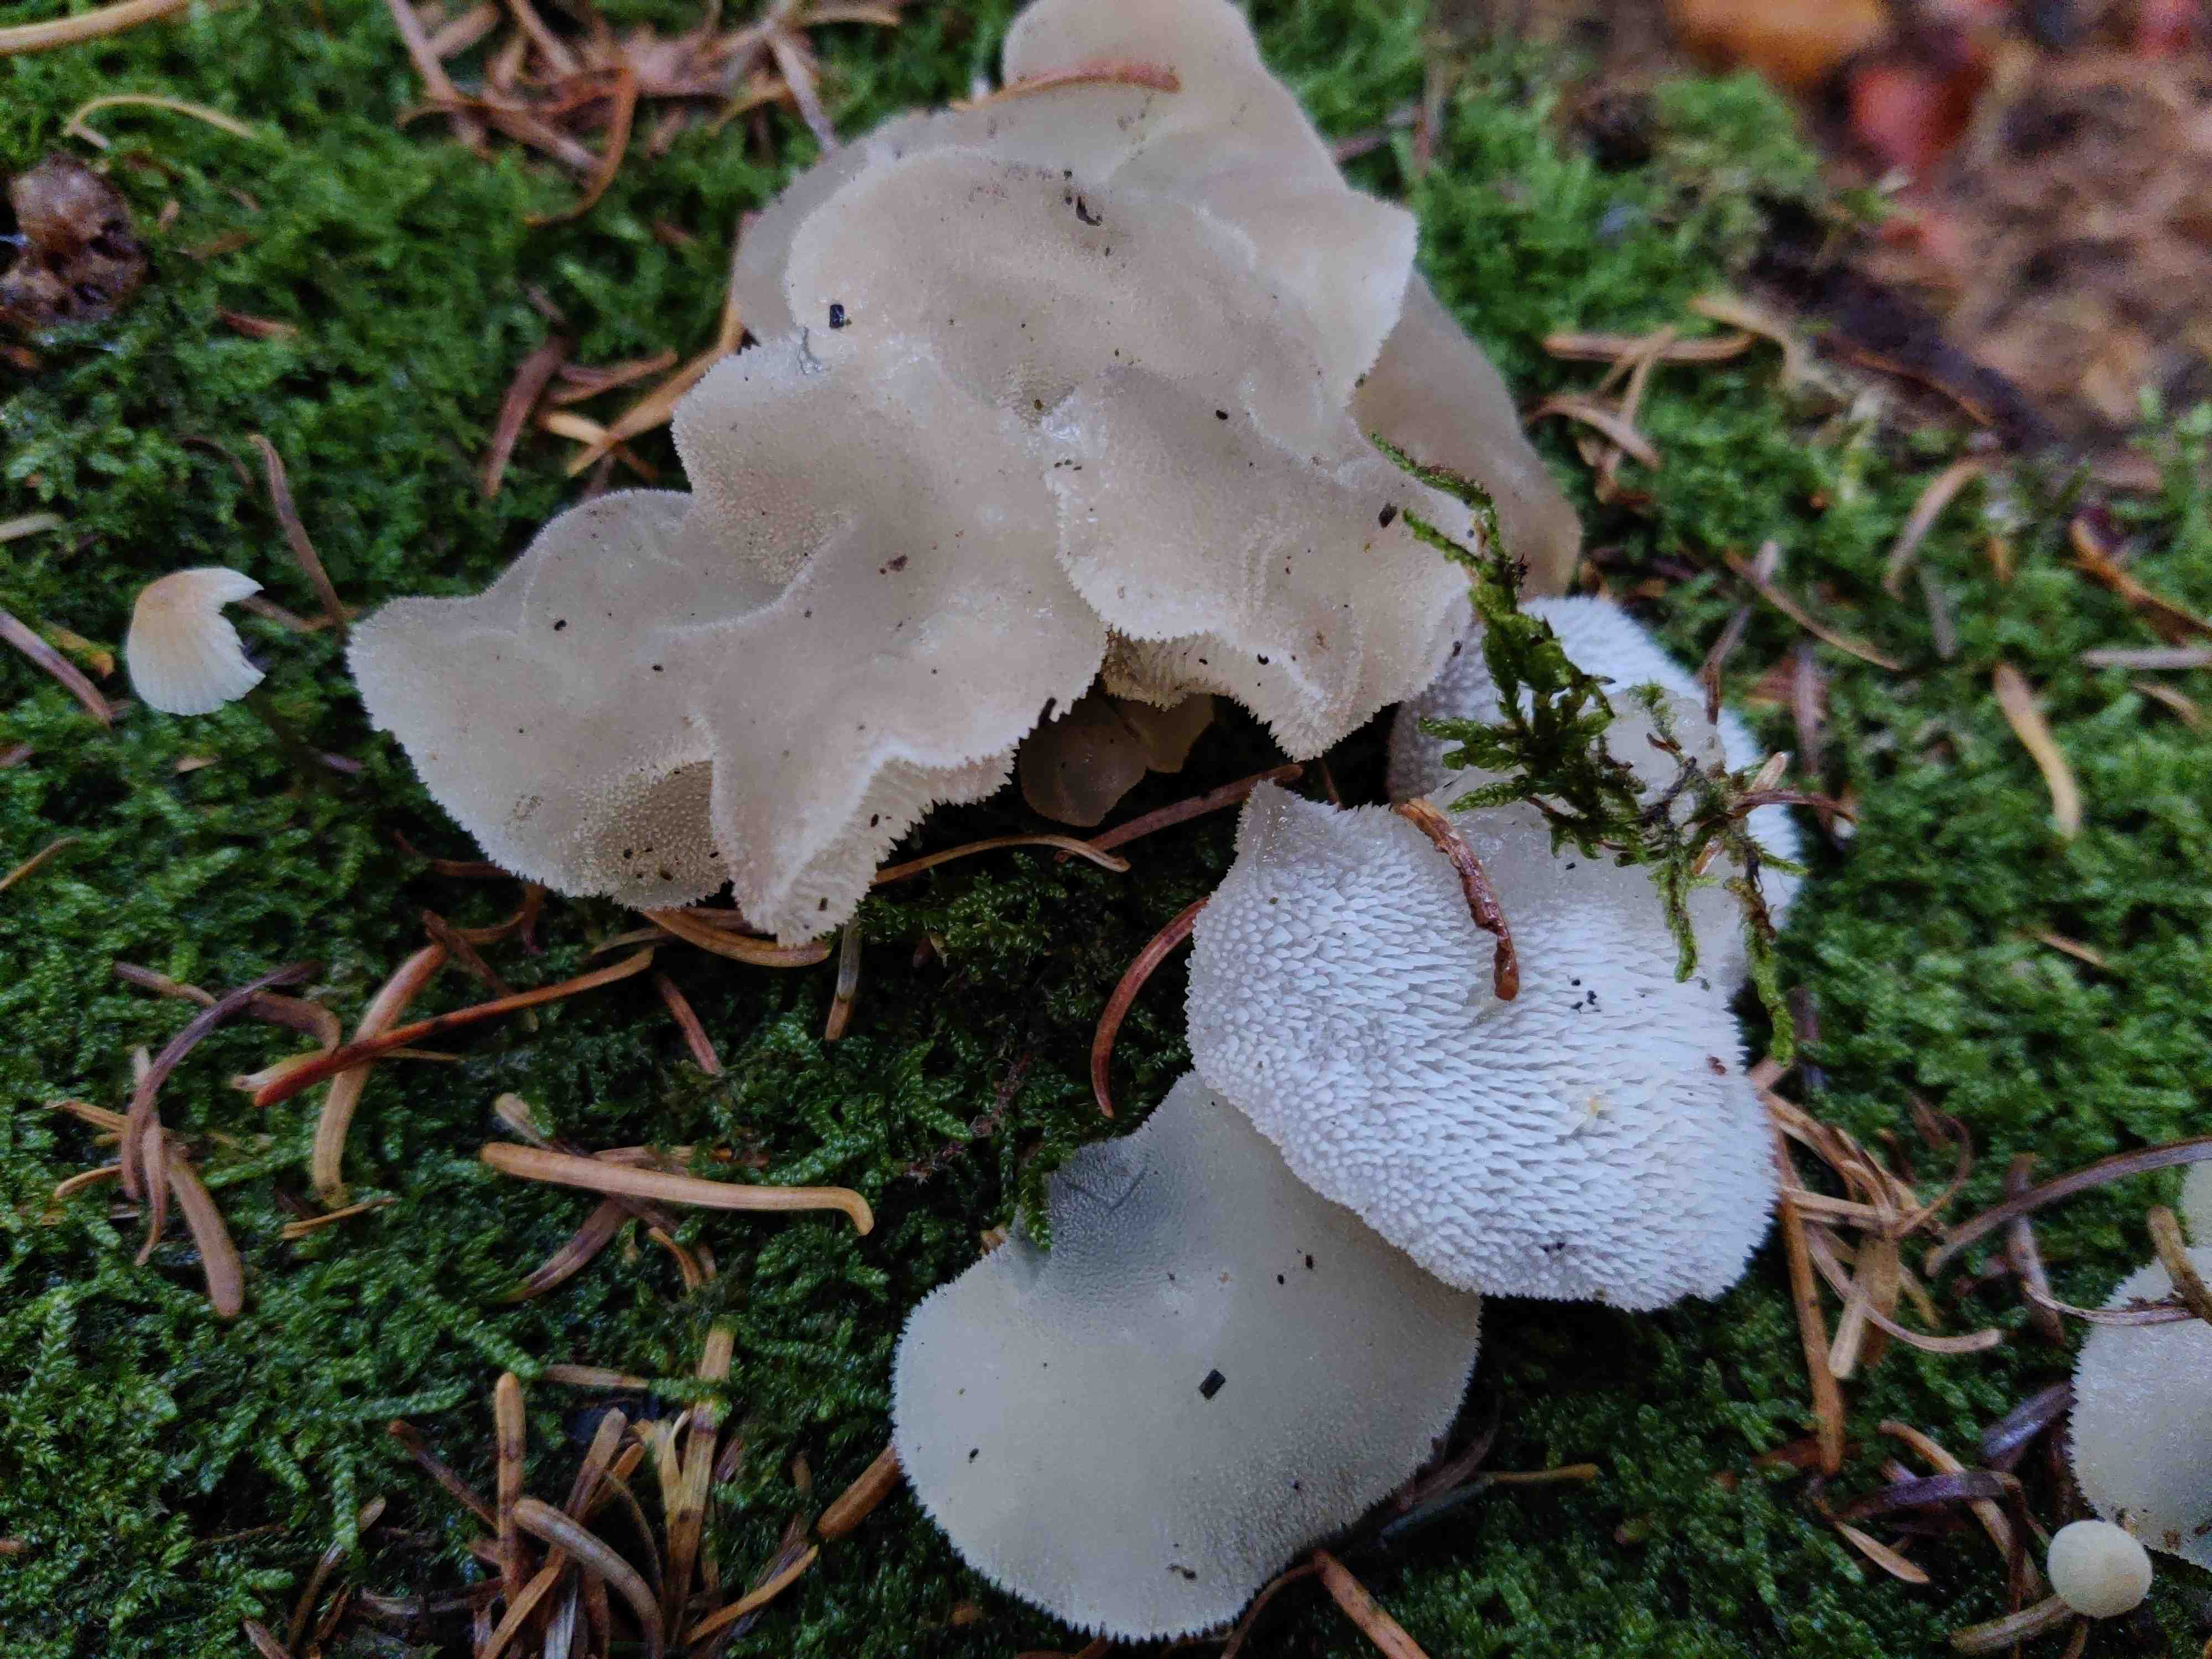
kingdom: Fungi
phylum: Basidiomycota
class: Agaricomycetes
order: Auriculariales
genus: Pseudohydnum
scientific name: Pseudohydnum gelatinosum
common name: bævretand
